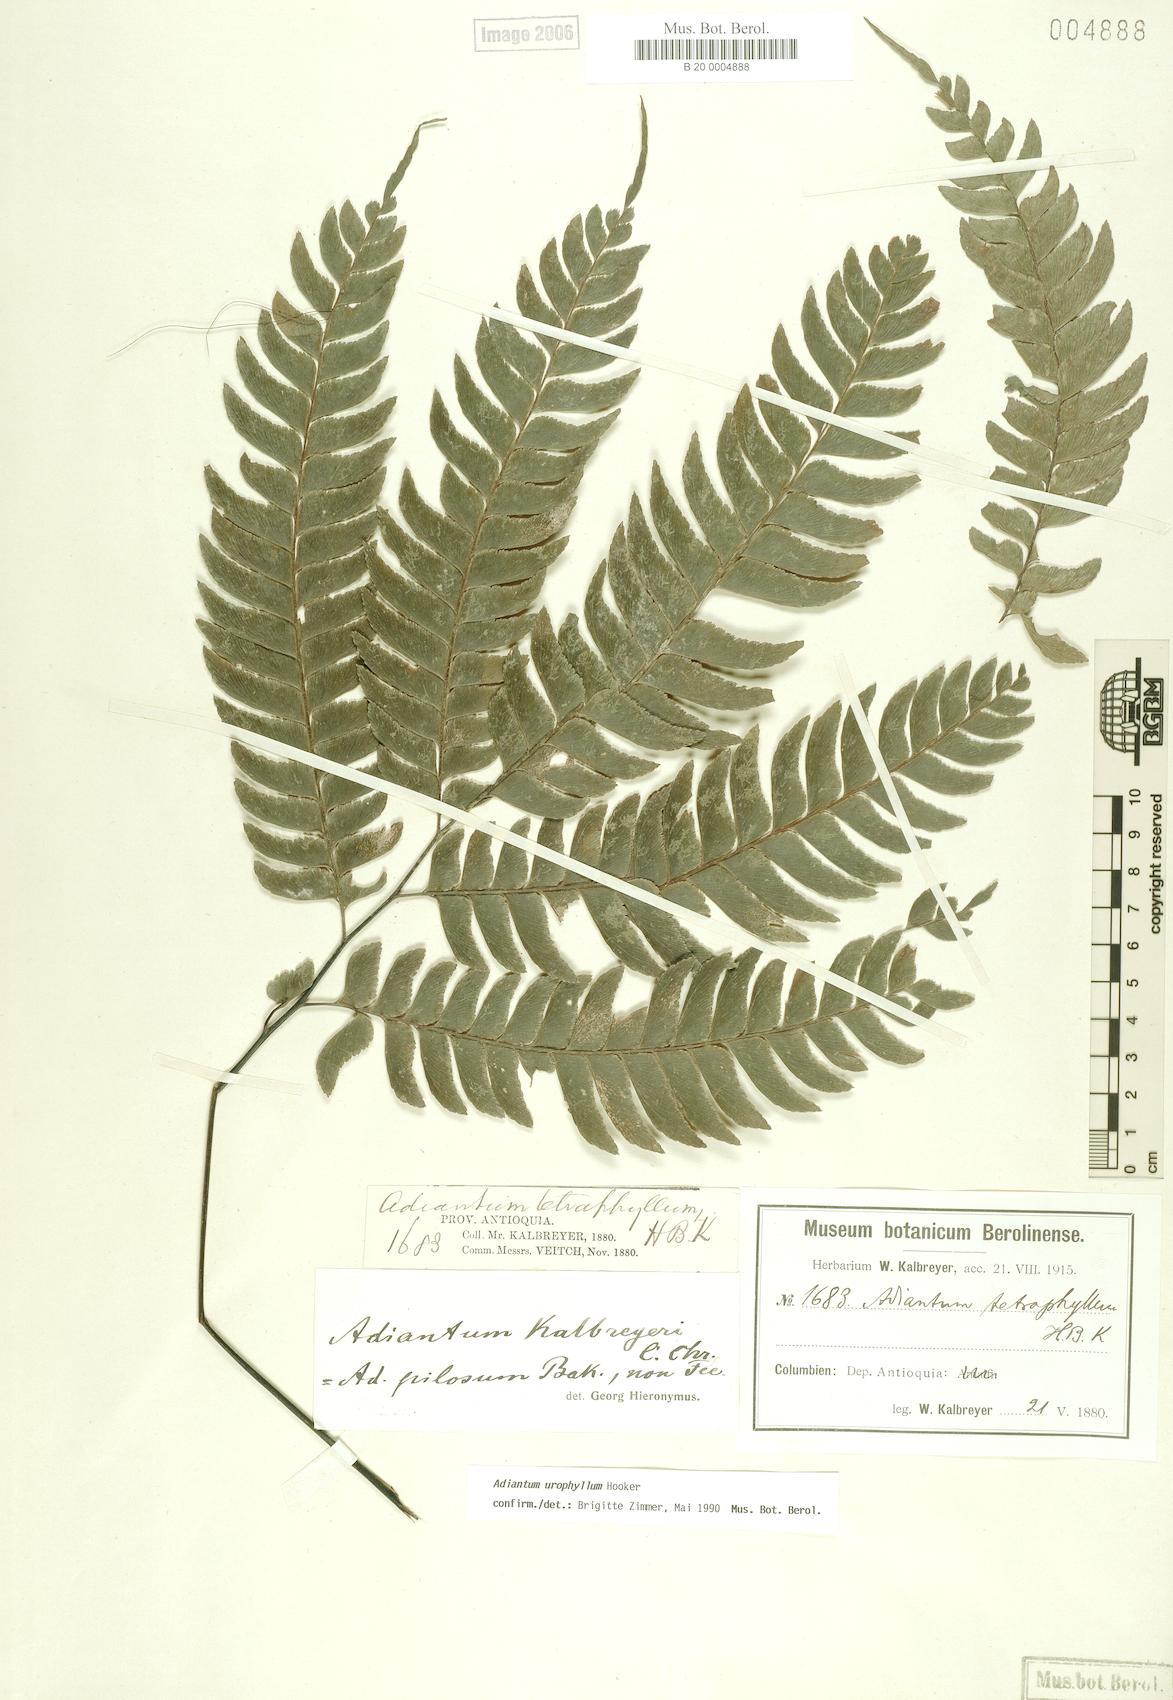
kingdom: Plantae
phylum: Tracheophyta
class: Polypodiopsida
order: Polypodiales
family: Pteridaceae
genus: Adiantum
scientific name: Adiantum urophyllum
